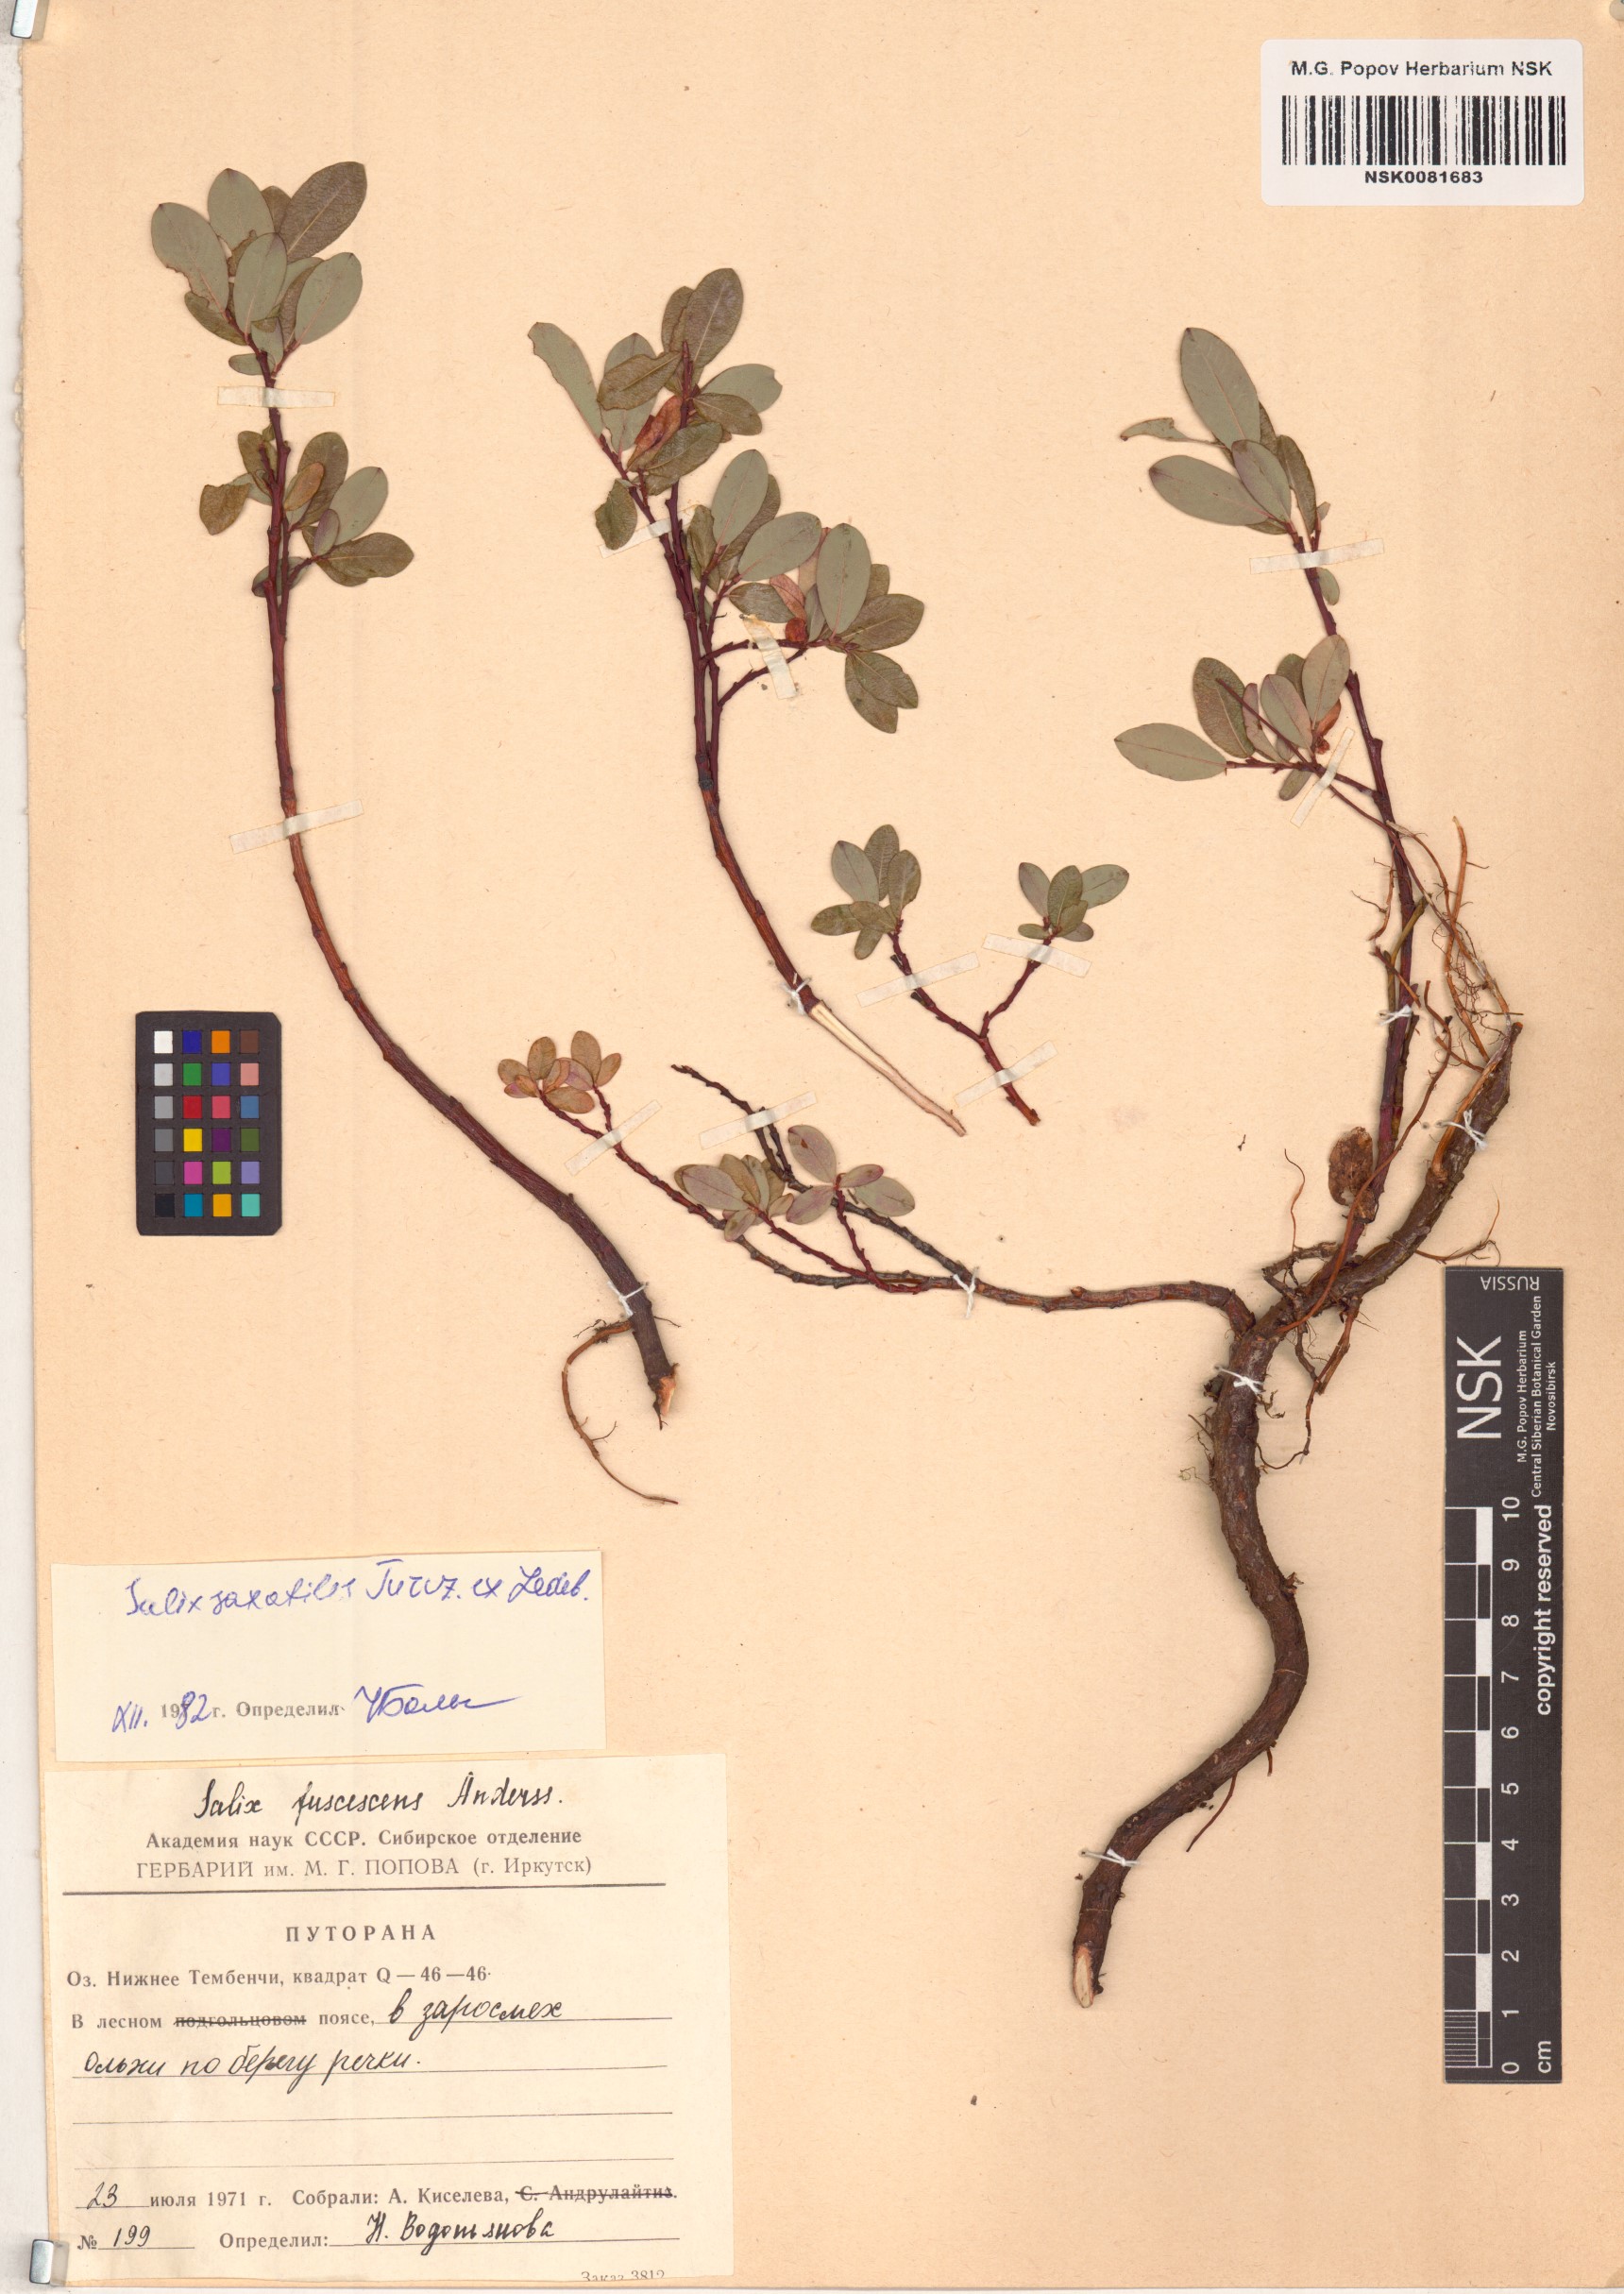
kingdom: Plantae
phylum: Tracheophyta
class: Magnoliopsida
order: Malpighiales
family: Salicaceae
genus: Salix
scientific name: Salix saxatilis
